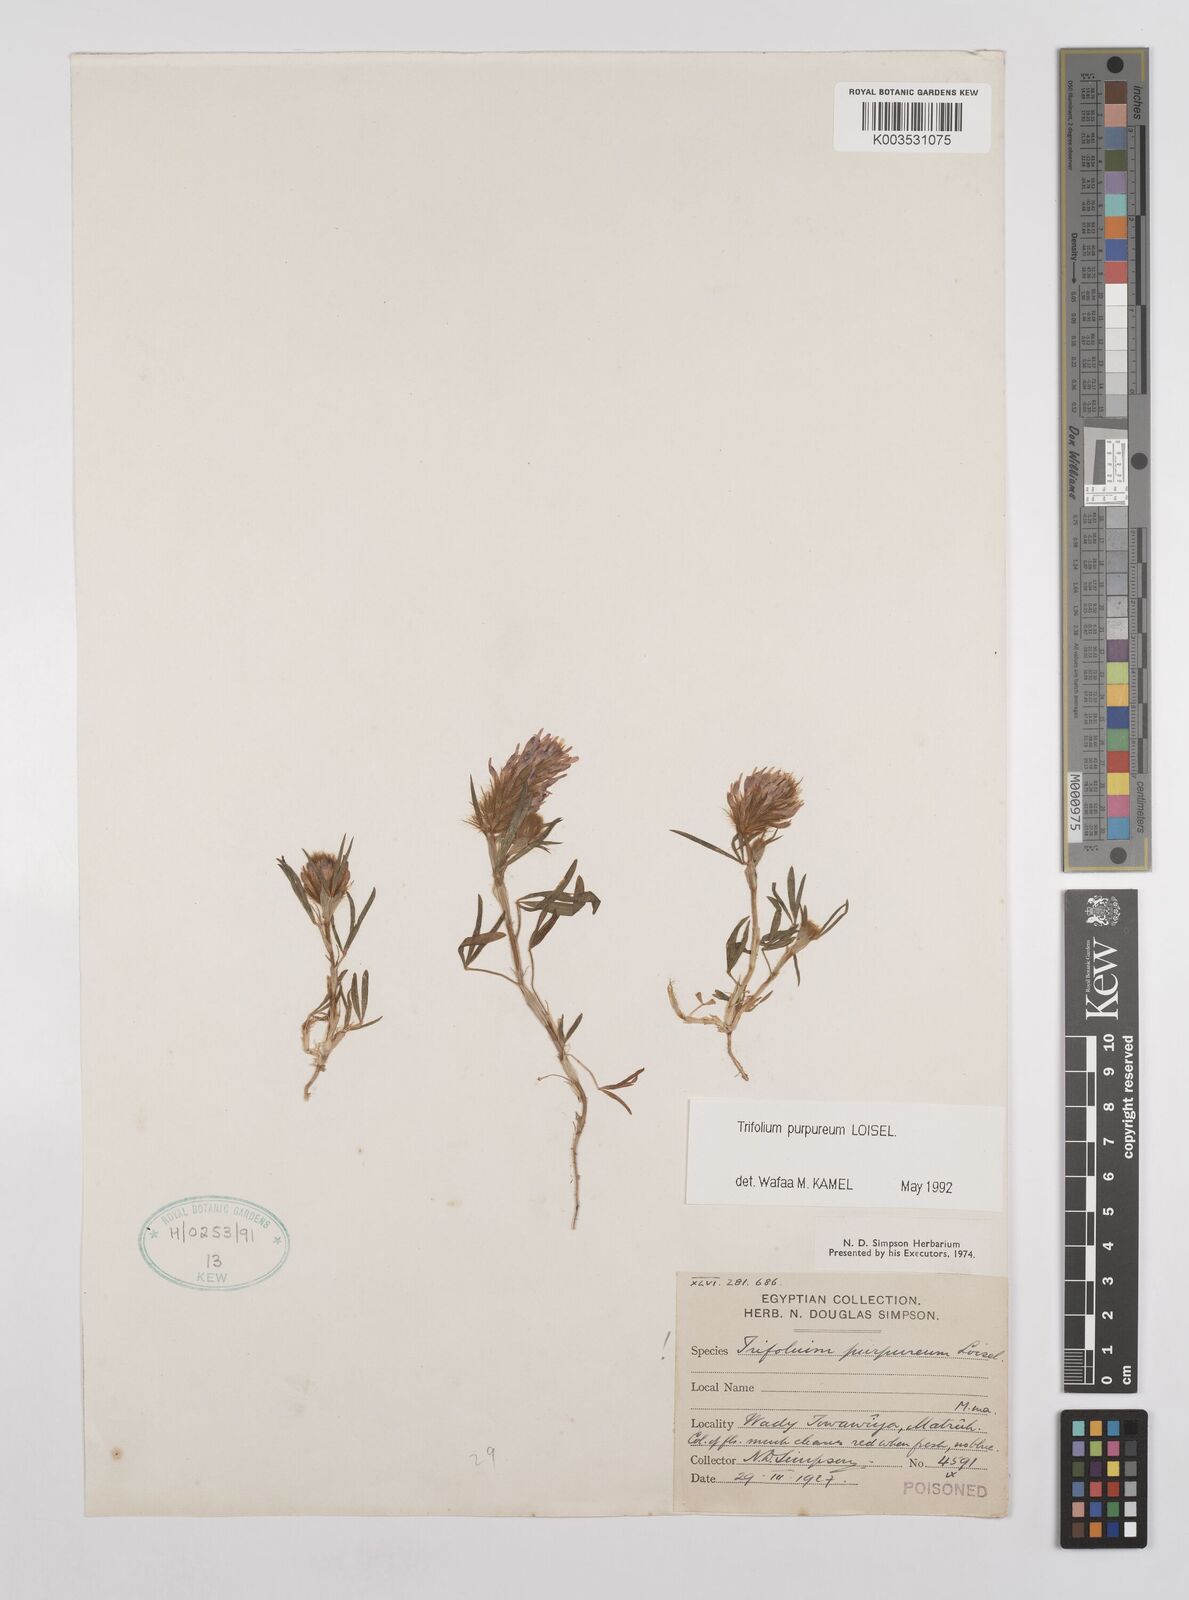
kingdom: Plantae
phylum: Tracheophyta
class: Magnoliopsida
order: Fabales
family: Fabaceae
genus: Trifolium
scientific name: Trifolium purpureum
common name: Purple clover
